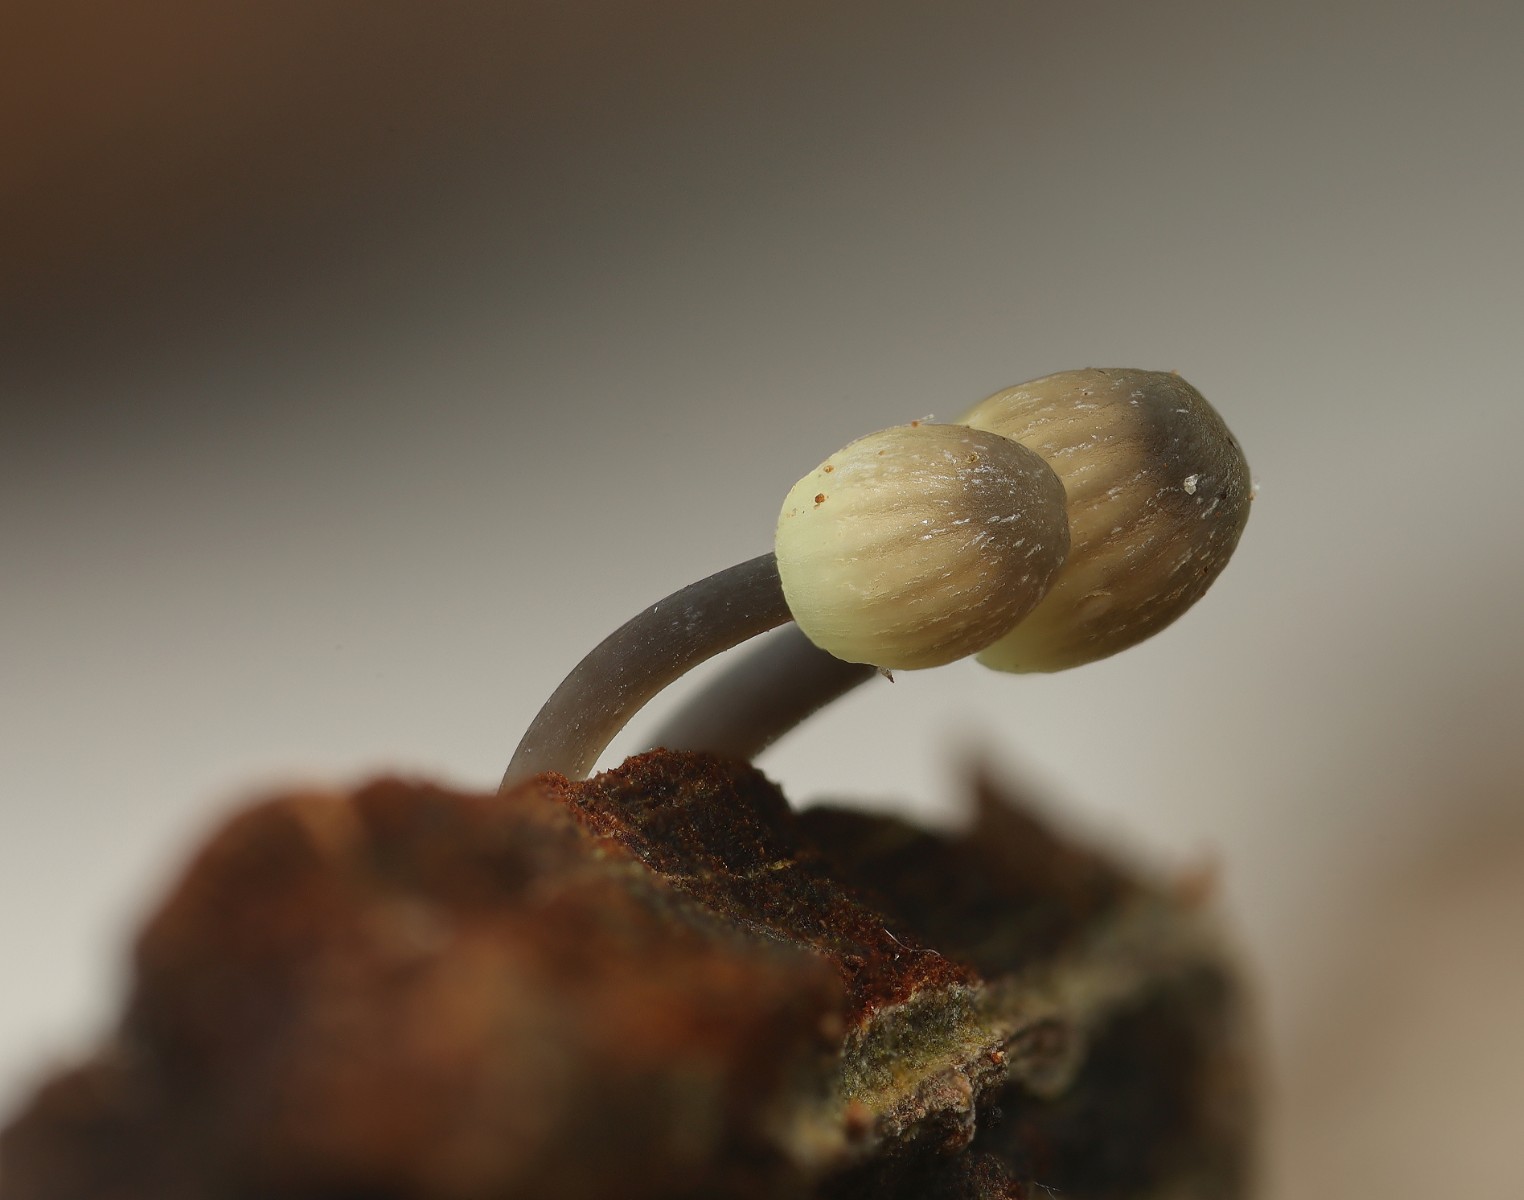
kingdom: Fungi
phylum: Basidiomycota
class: Agaricomycetes
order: Agaricales
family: Mycenaceae
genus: Mycena
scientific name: Mycena arcangeliana
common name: oliven-huesvamp
